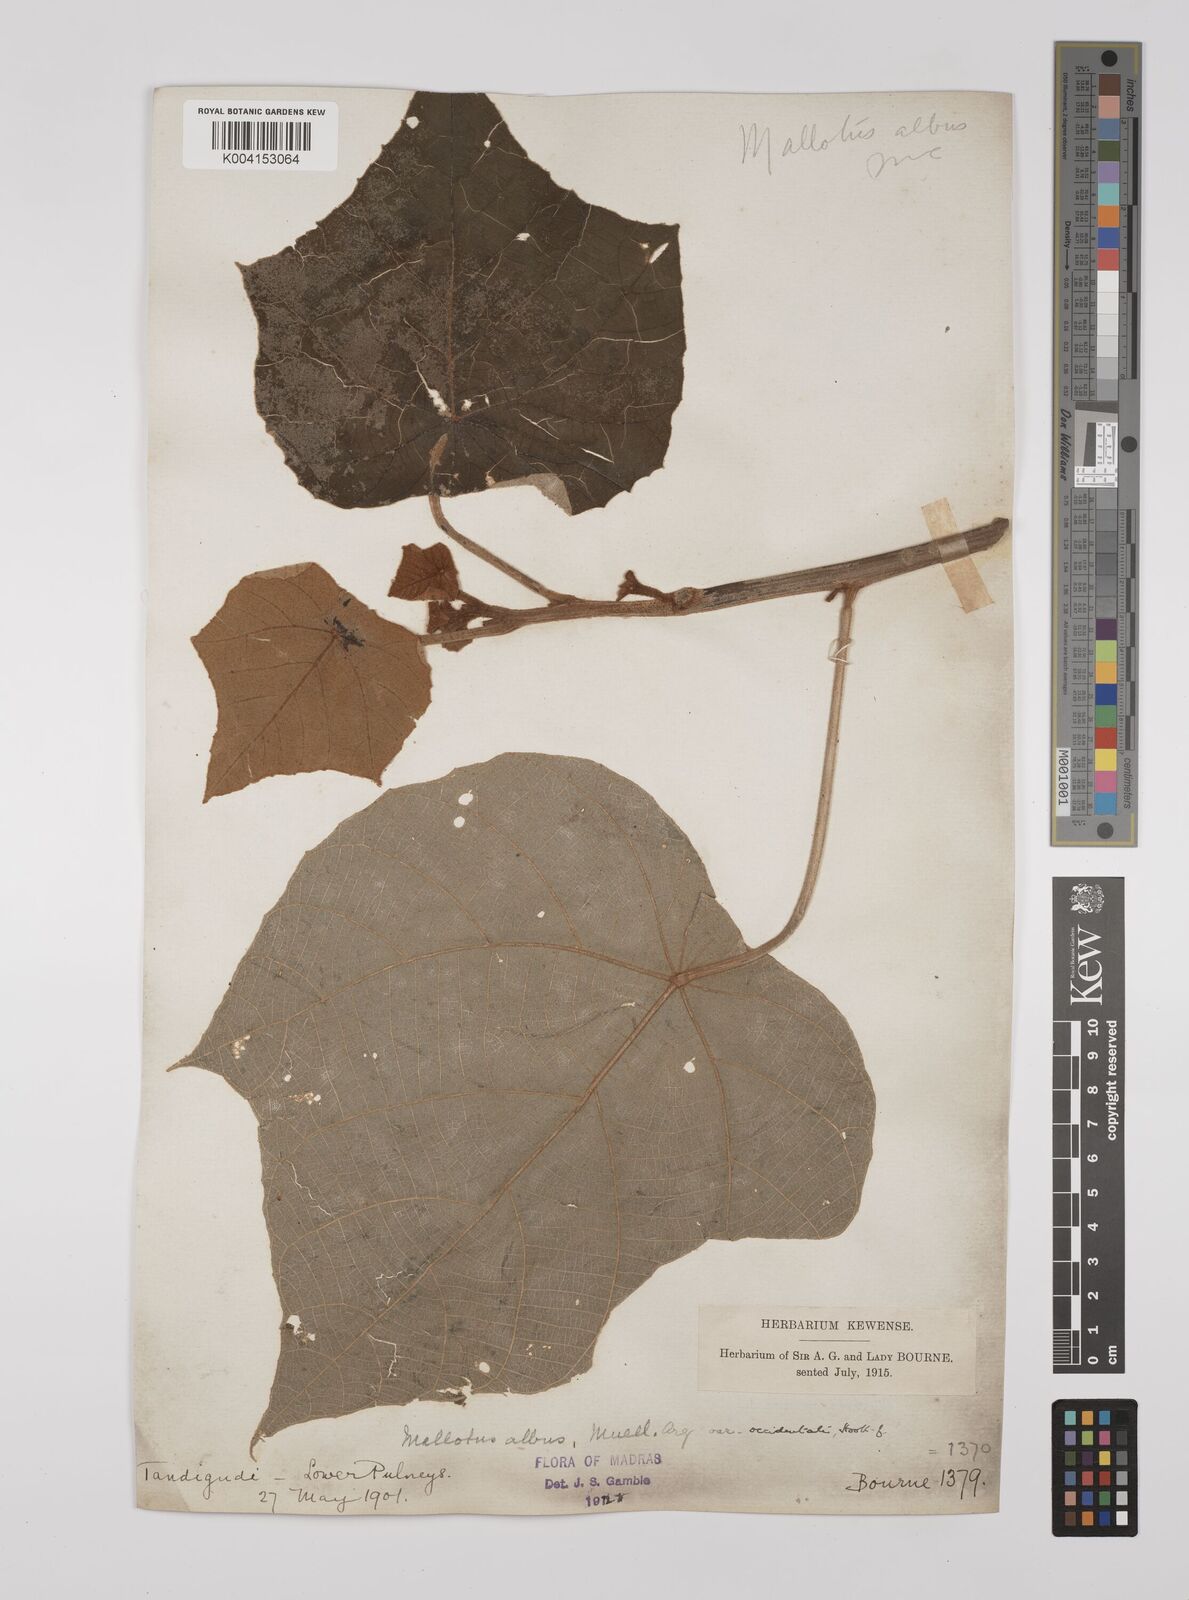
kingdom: Plantae
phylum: Tracheophyta
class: Magnoliopsida
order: Malpighiales
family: Euphorbiaceae
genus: Mallotus
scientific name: Mallotus tetracoccus
